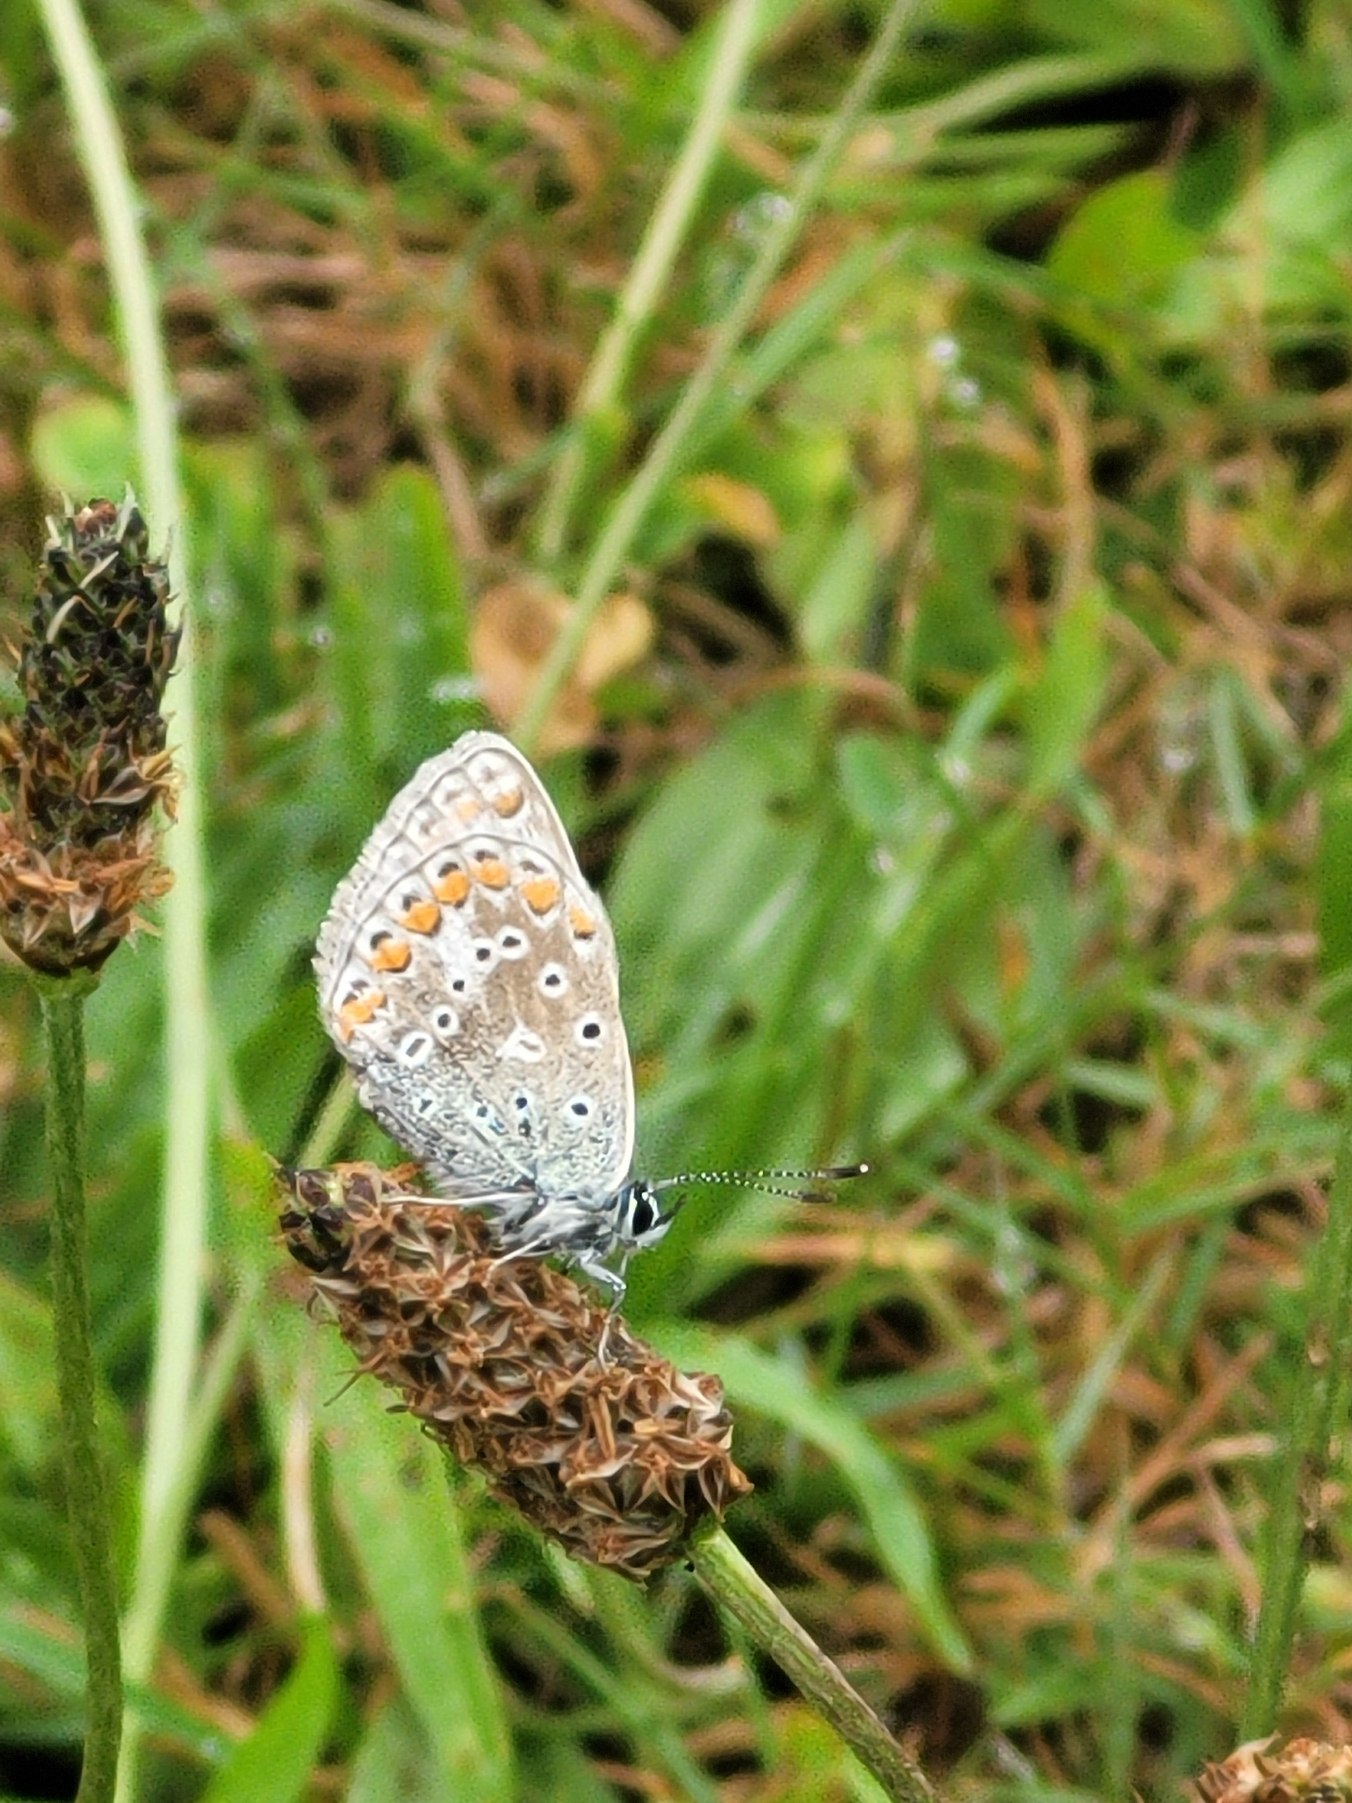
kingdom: Animalia
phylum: Arthropoda
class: Insecta
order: Lepidoptera
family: Lycaenidae
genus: Polyommatus
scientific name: Polyommatus icarus
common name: Almindelig blåfugl
